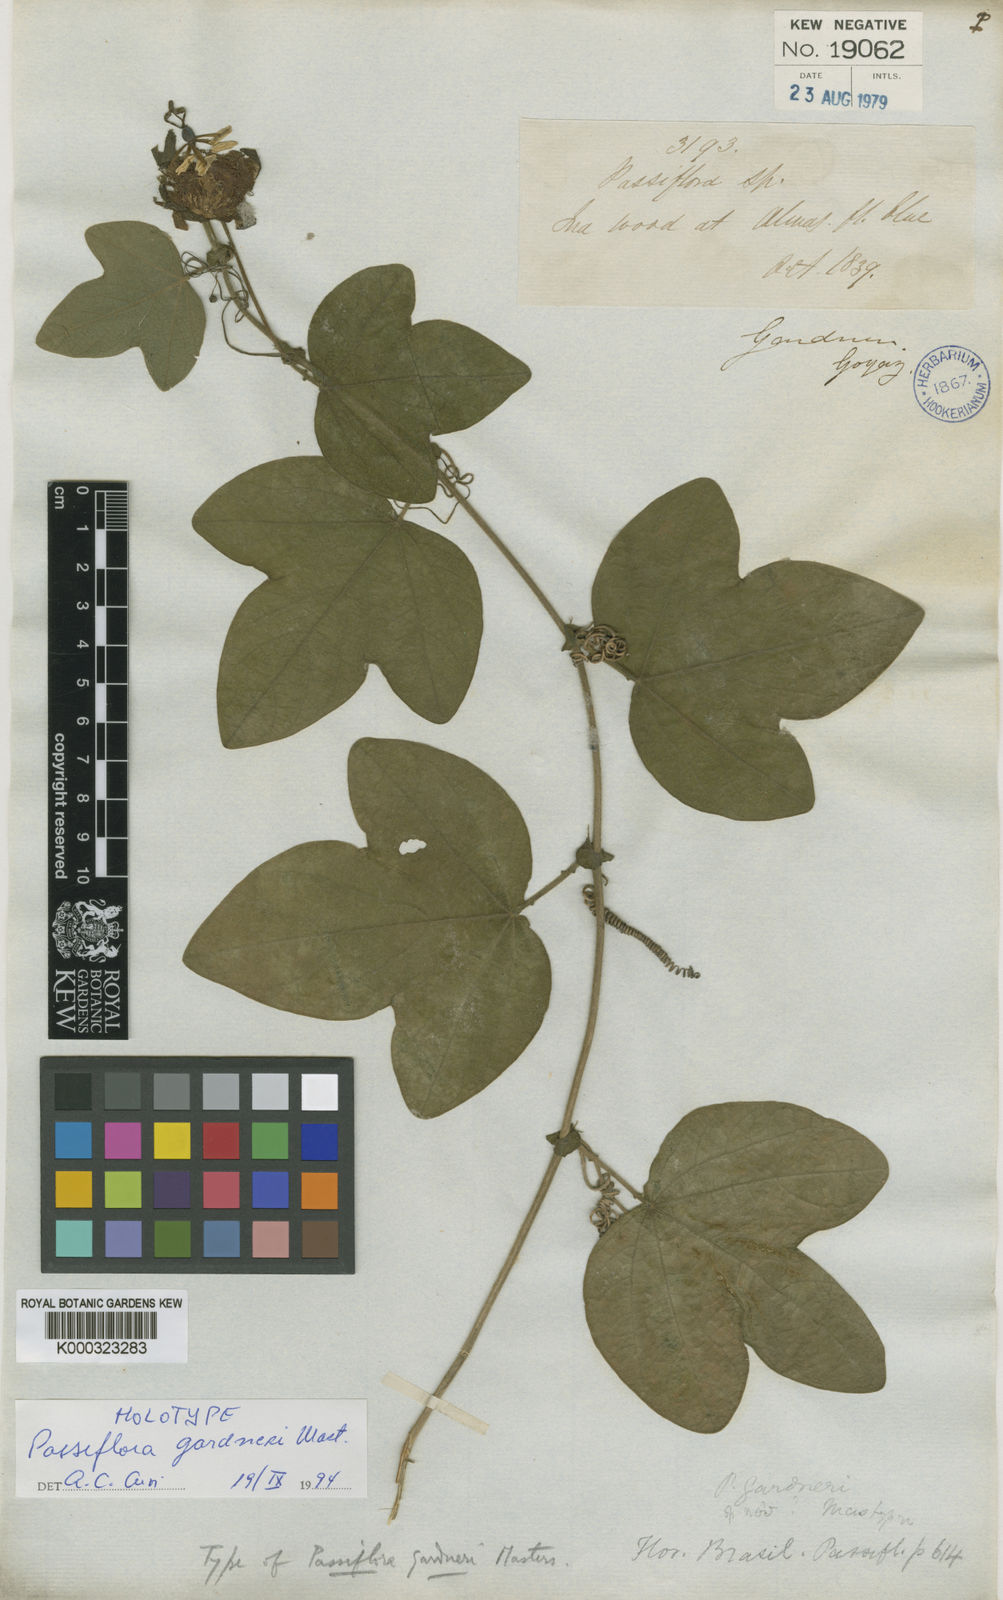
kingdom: Plantae
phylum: Tracheophyta
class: Magnoliopsida
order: Malpighiales
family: Passifloraceae
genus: Passiflora
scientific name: Passiflora gardneri
